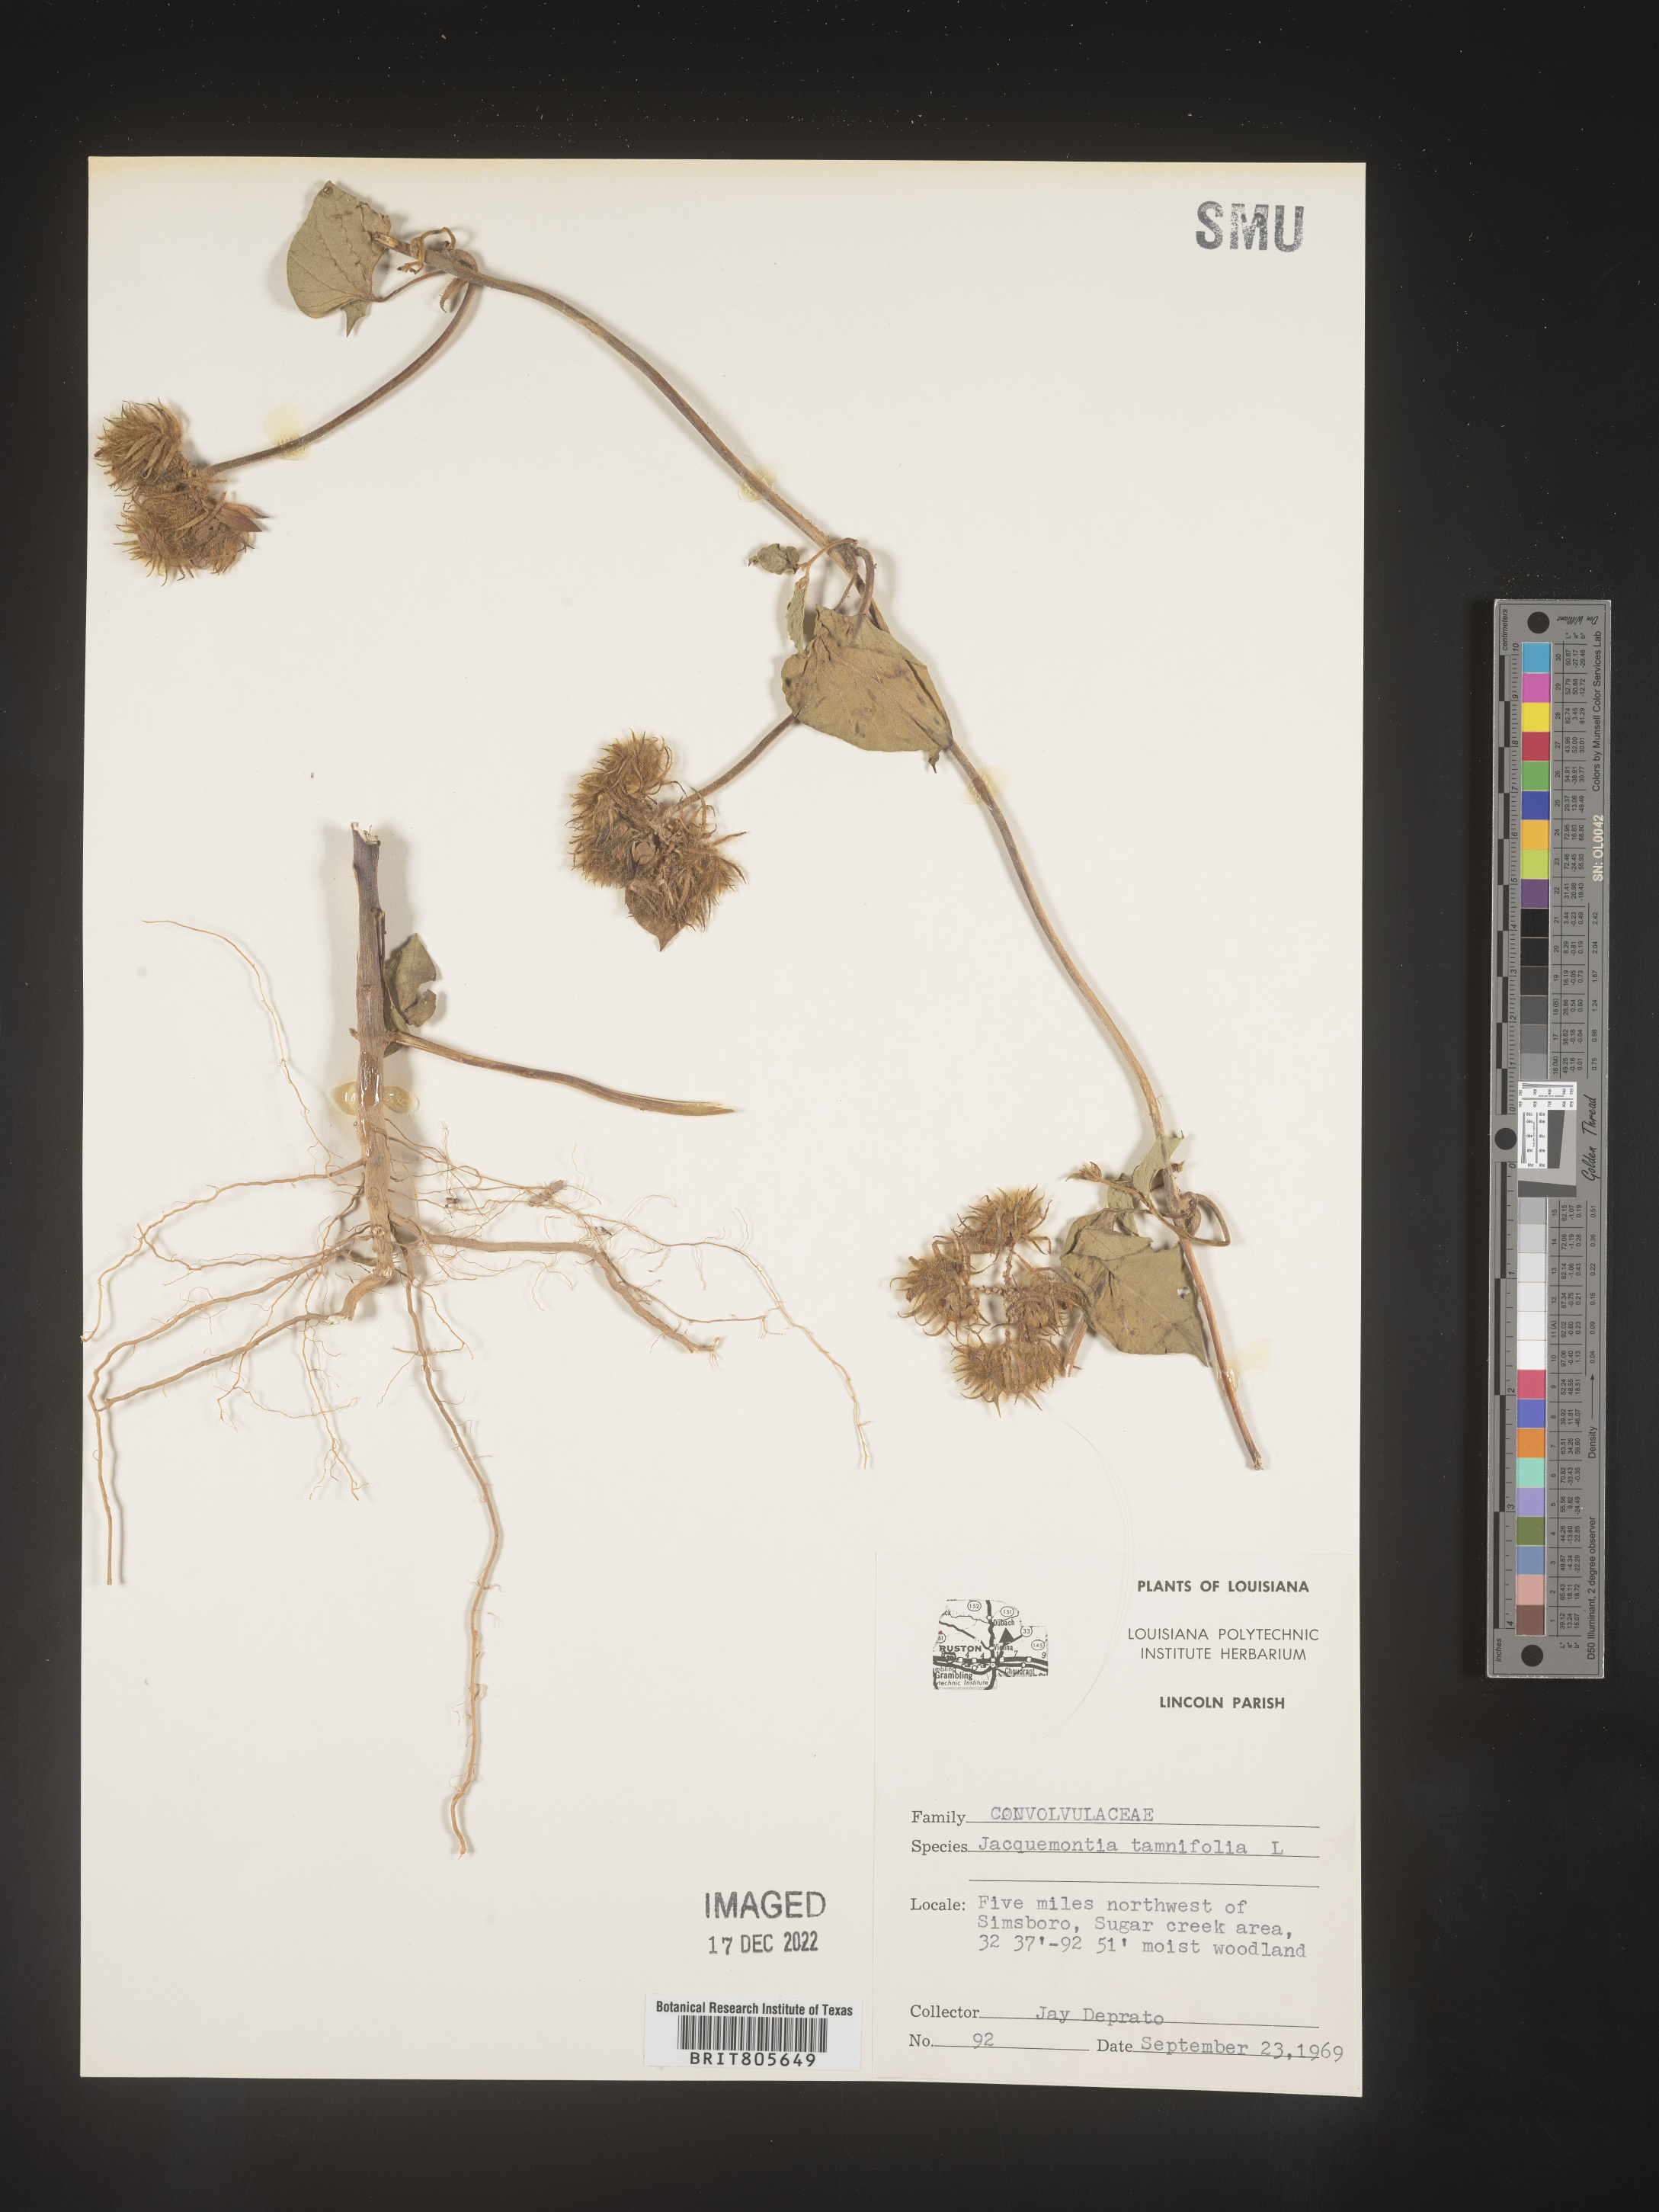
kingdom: Plantae
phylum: Tracheophyta
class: Magnoliopsida
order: Solanales
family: Convolvulaceae
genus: Jacquemontia
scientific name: Jacquemontia tamnifolia
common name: Hairy clustervine
